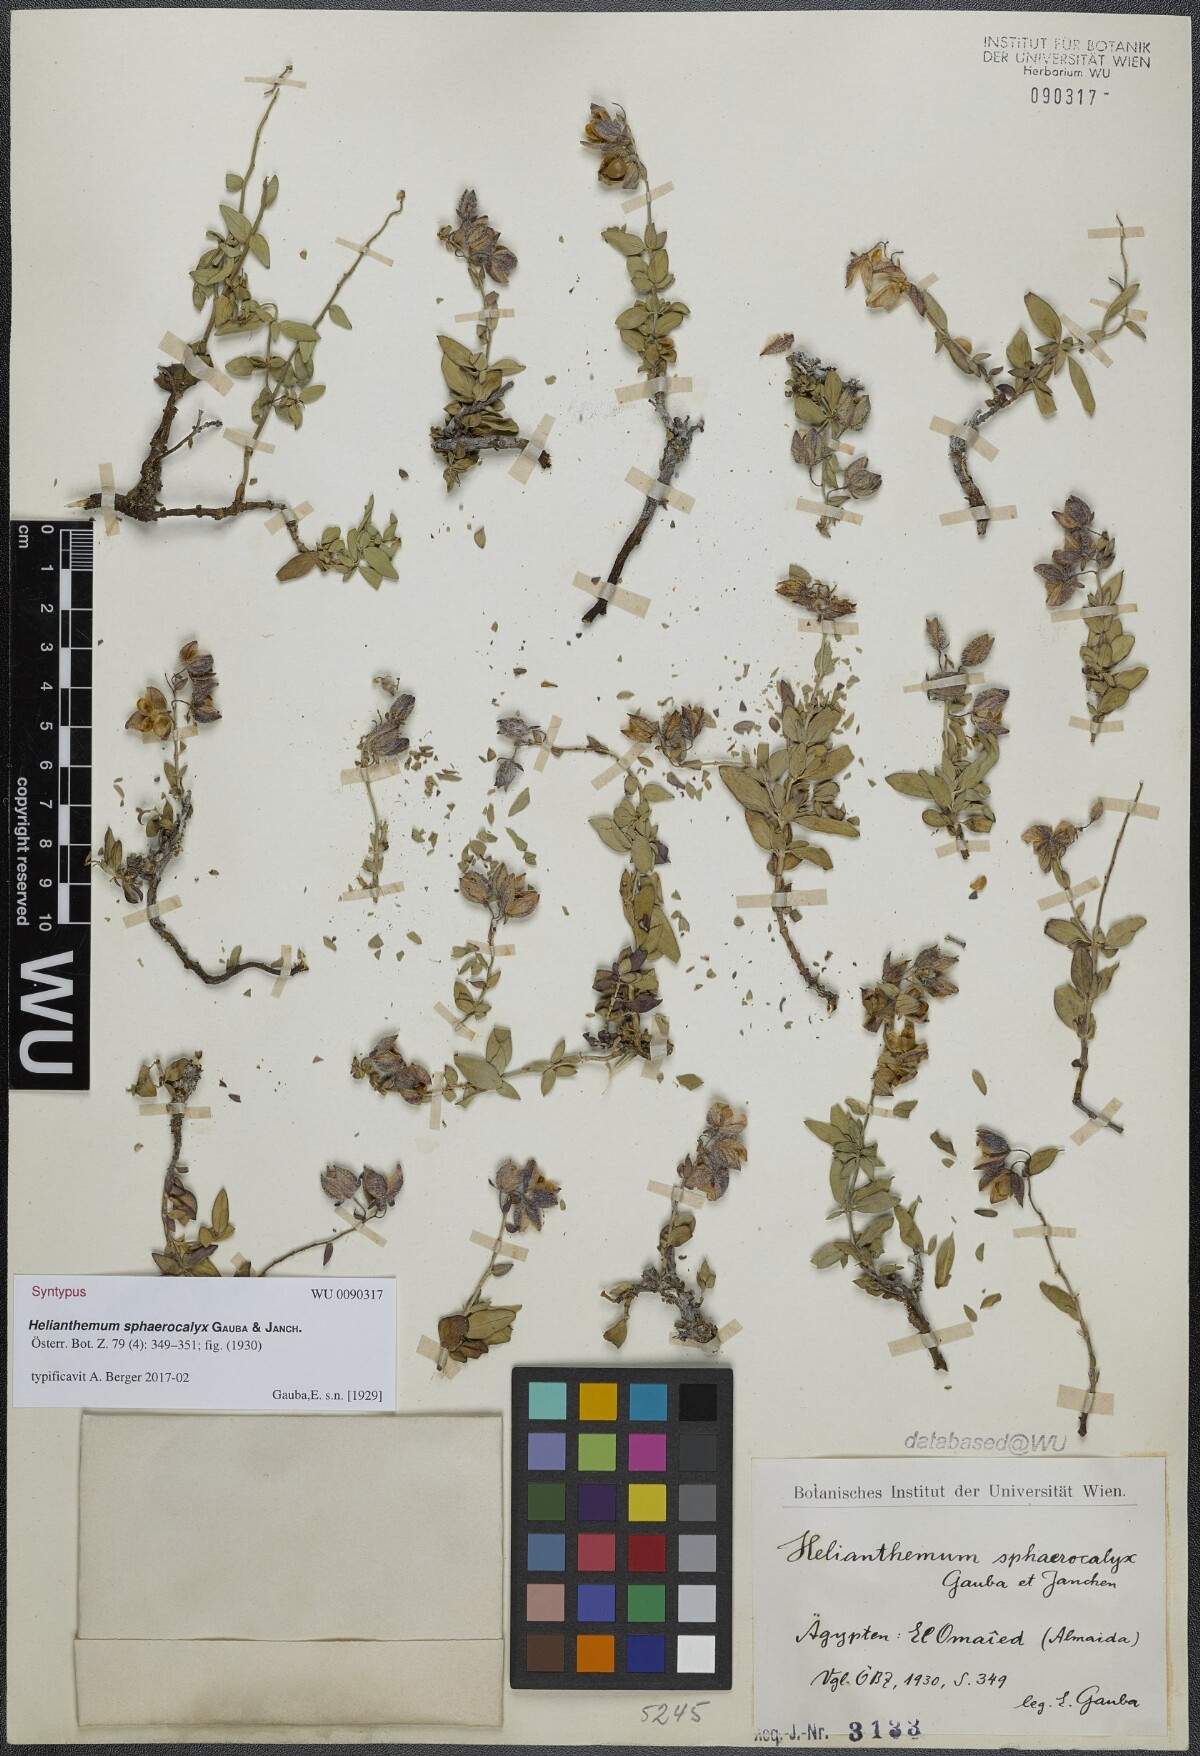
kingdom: Plantae
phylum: Tracheophyta
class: Magnoliopsida
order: Malvales
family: Cistaceae
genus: Helianthemum
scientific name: Helianthemum crassifolium
